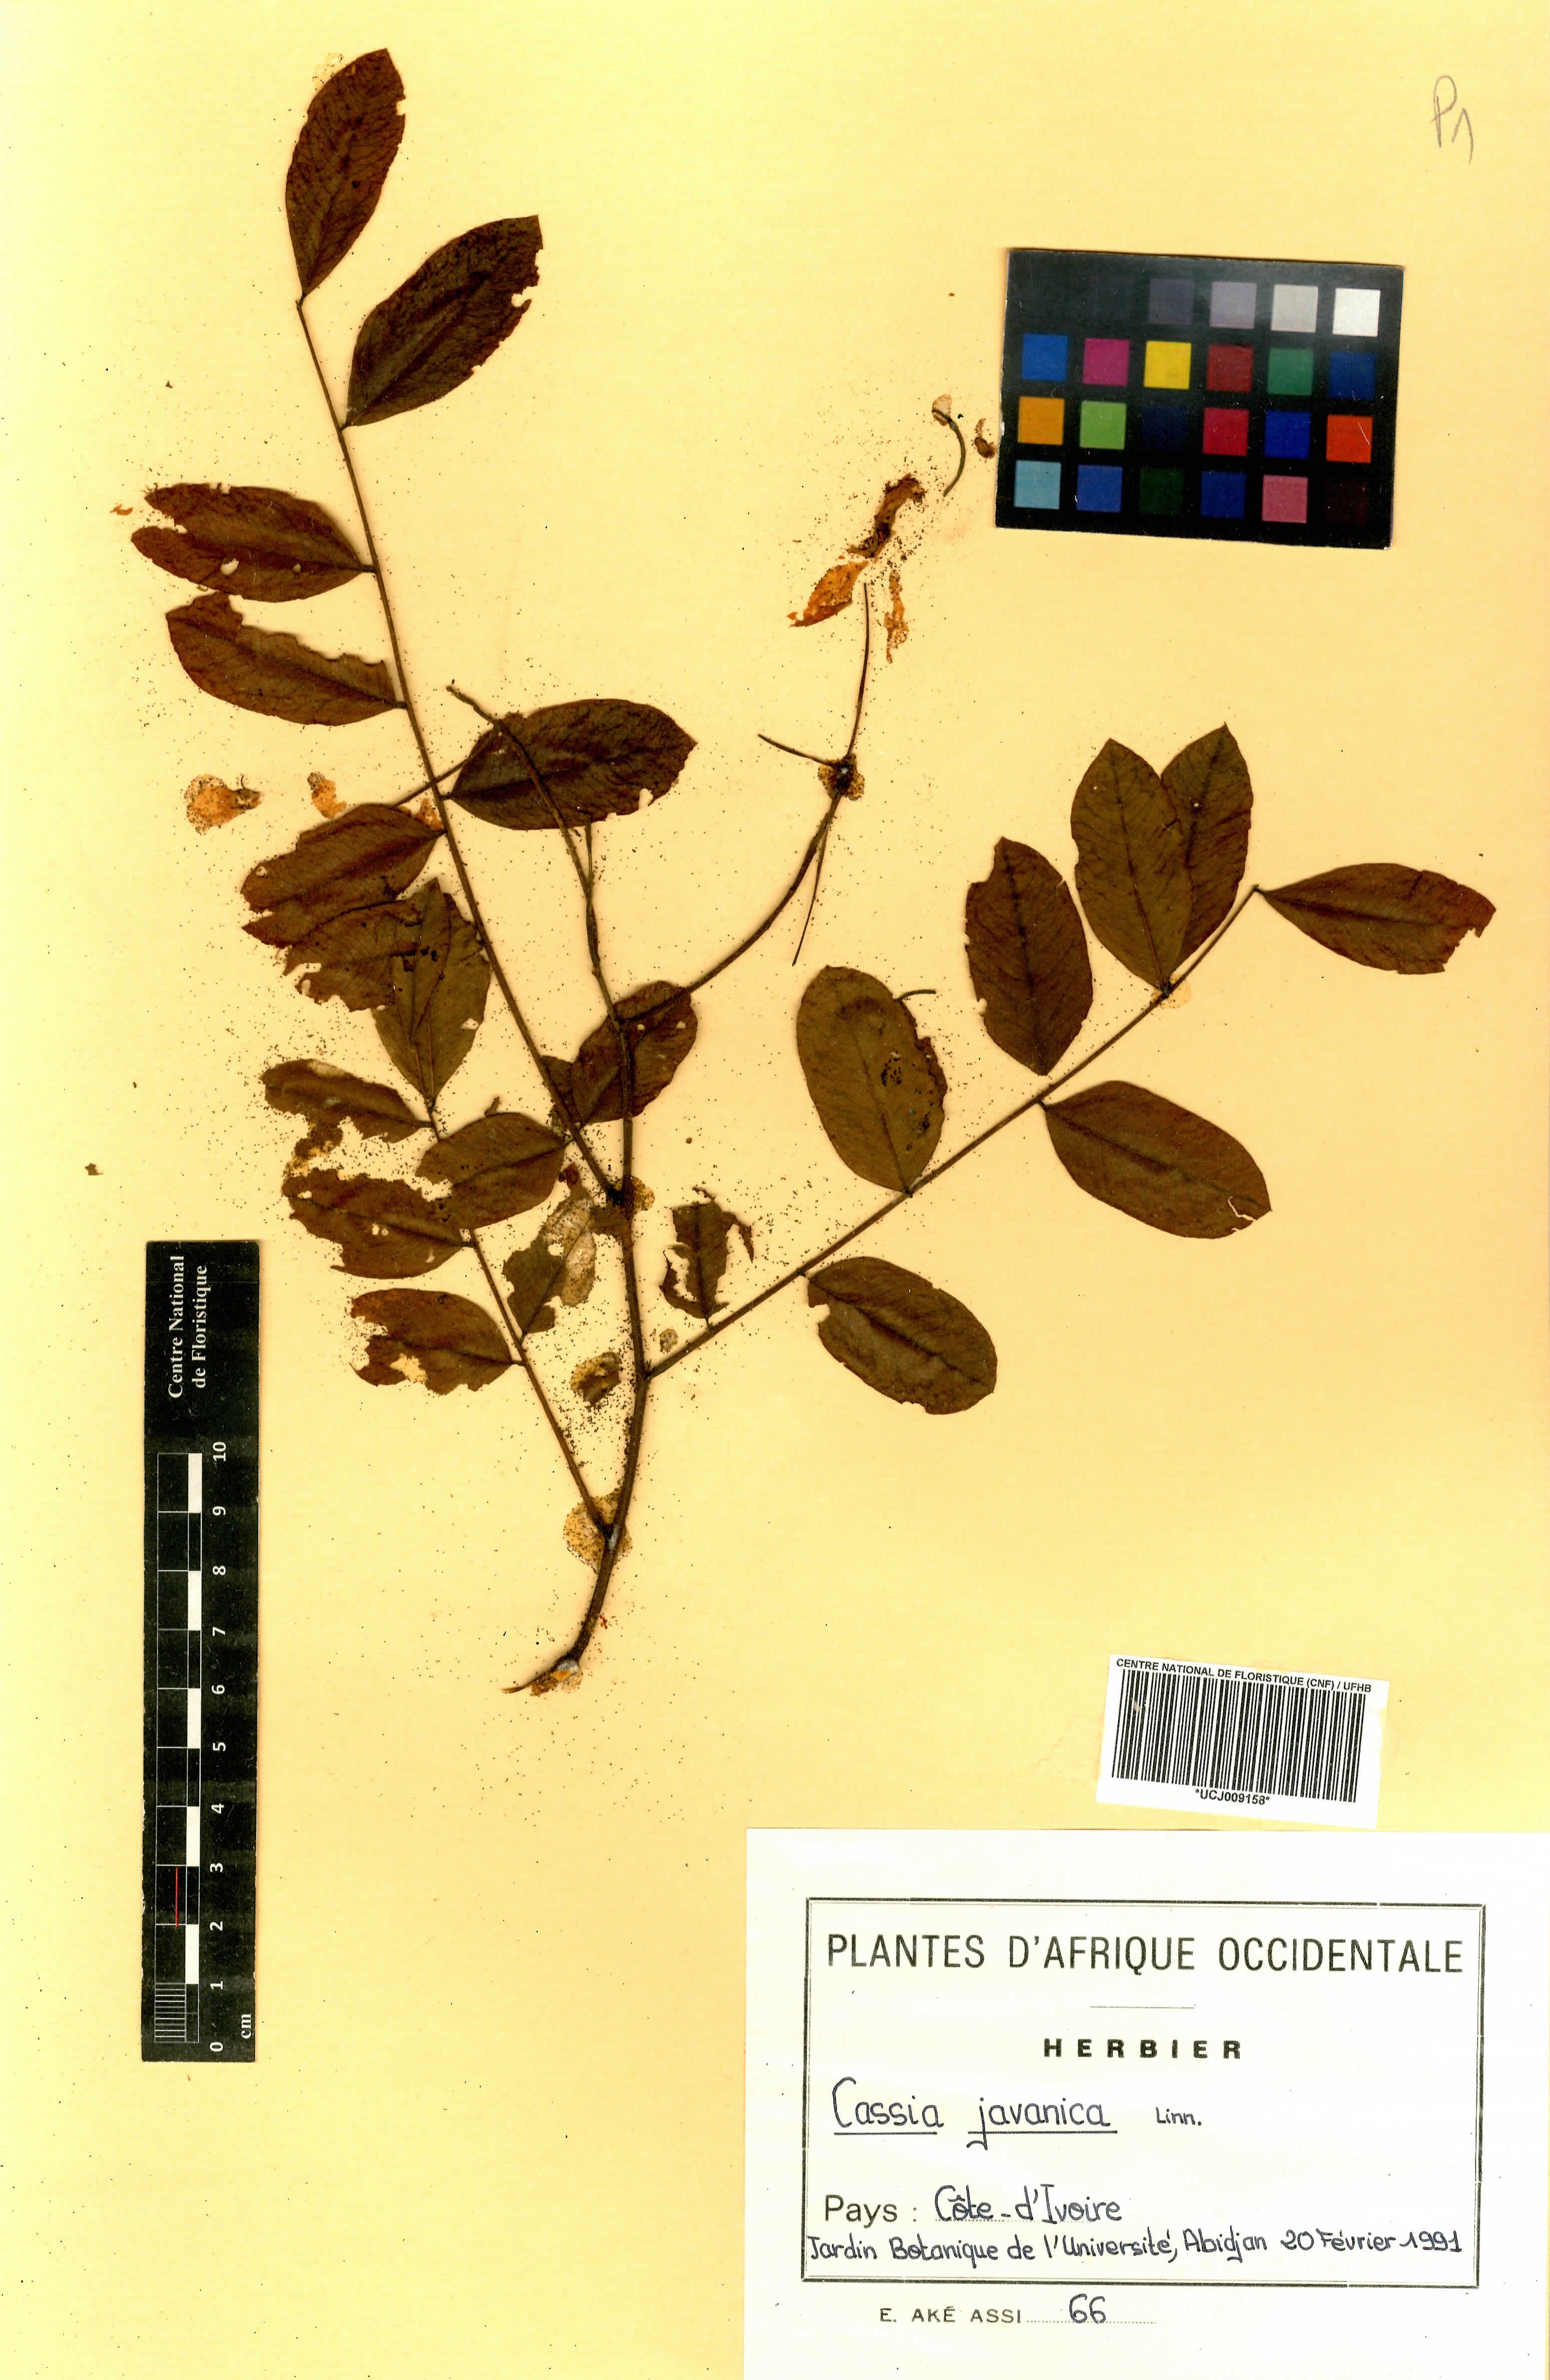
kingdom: Plantae
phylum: Tracheophyta
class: Magnoliopsida
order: Fabales
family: Fabaceae
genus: Cassia
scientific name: Cassia javanica
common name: Apple blossom
